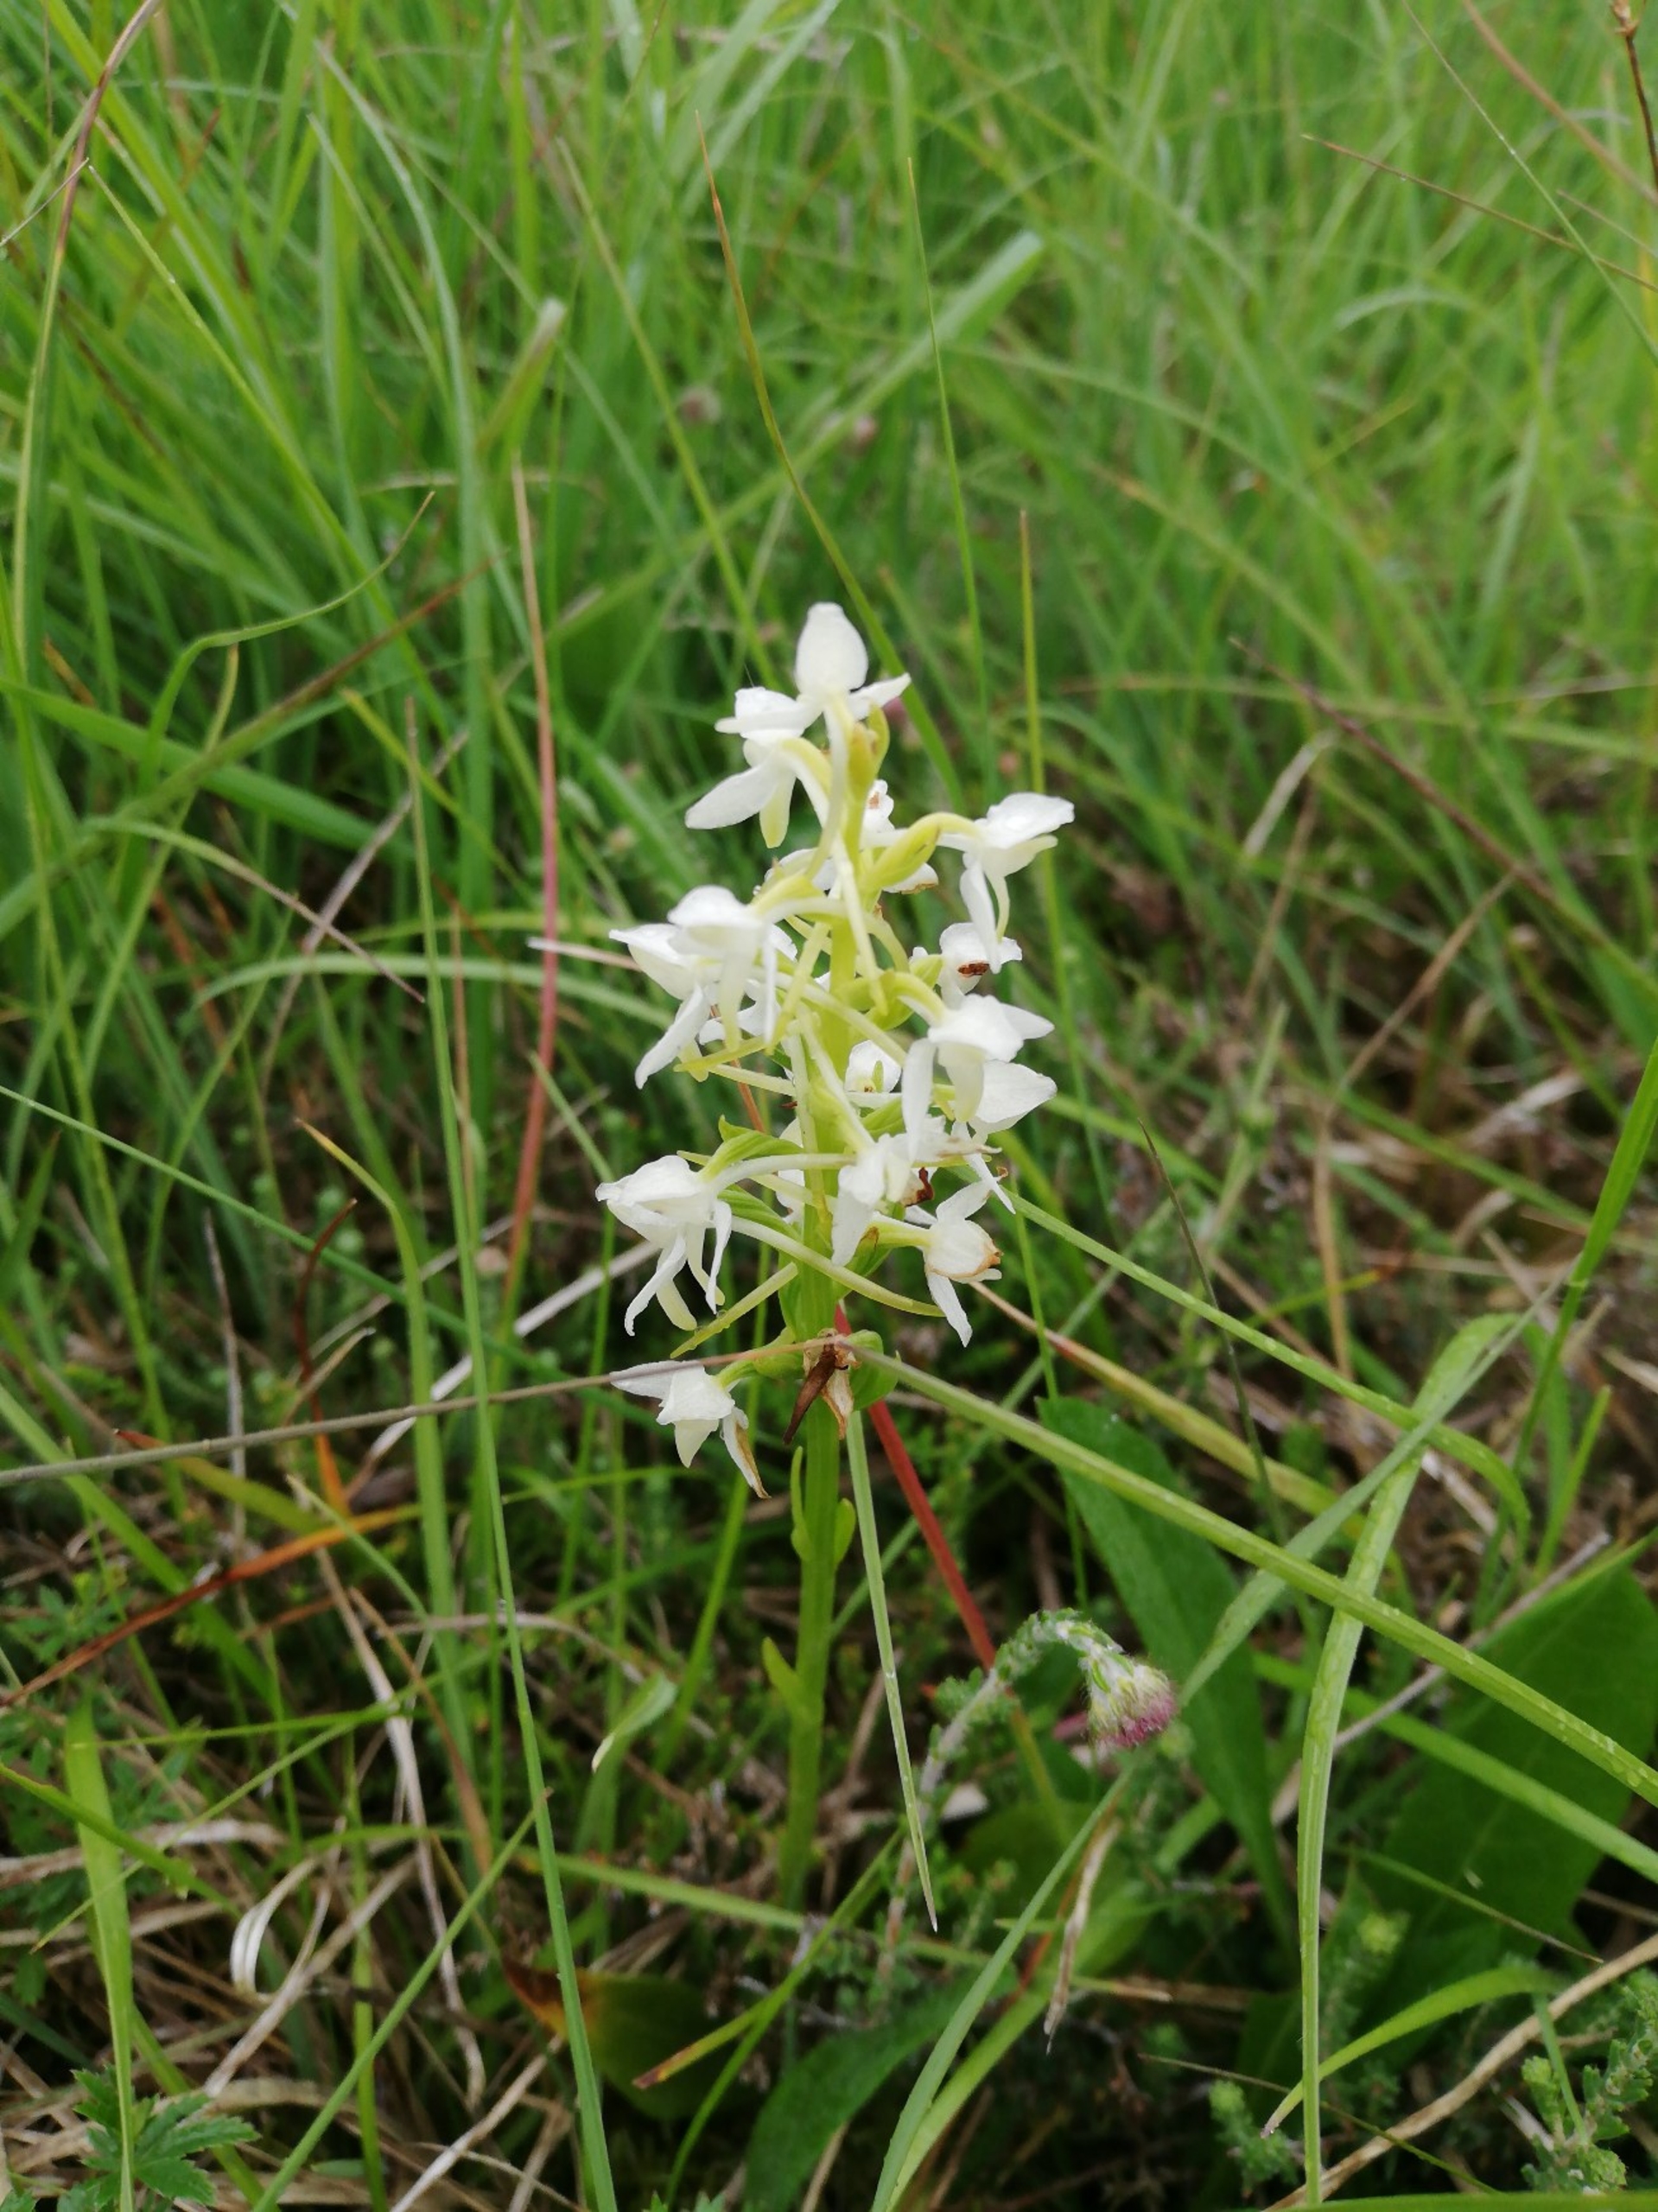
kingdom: Plantae
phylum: Tracheophyta
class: Liliopsida
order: Asparagales
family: Orchidaceae
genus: Platanthera
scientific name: Platanthera bifolia
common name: Bakke-gøgelilje
